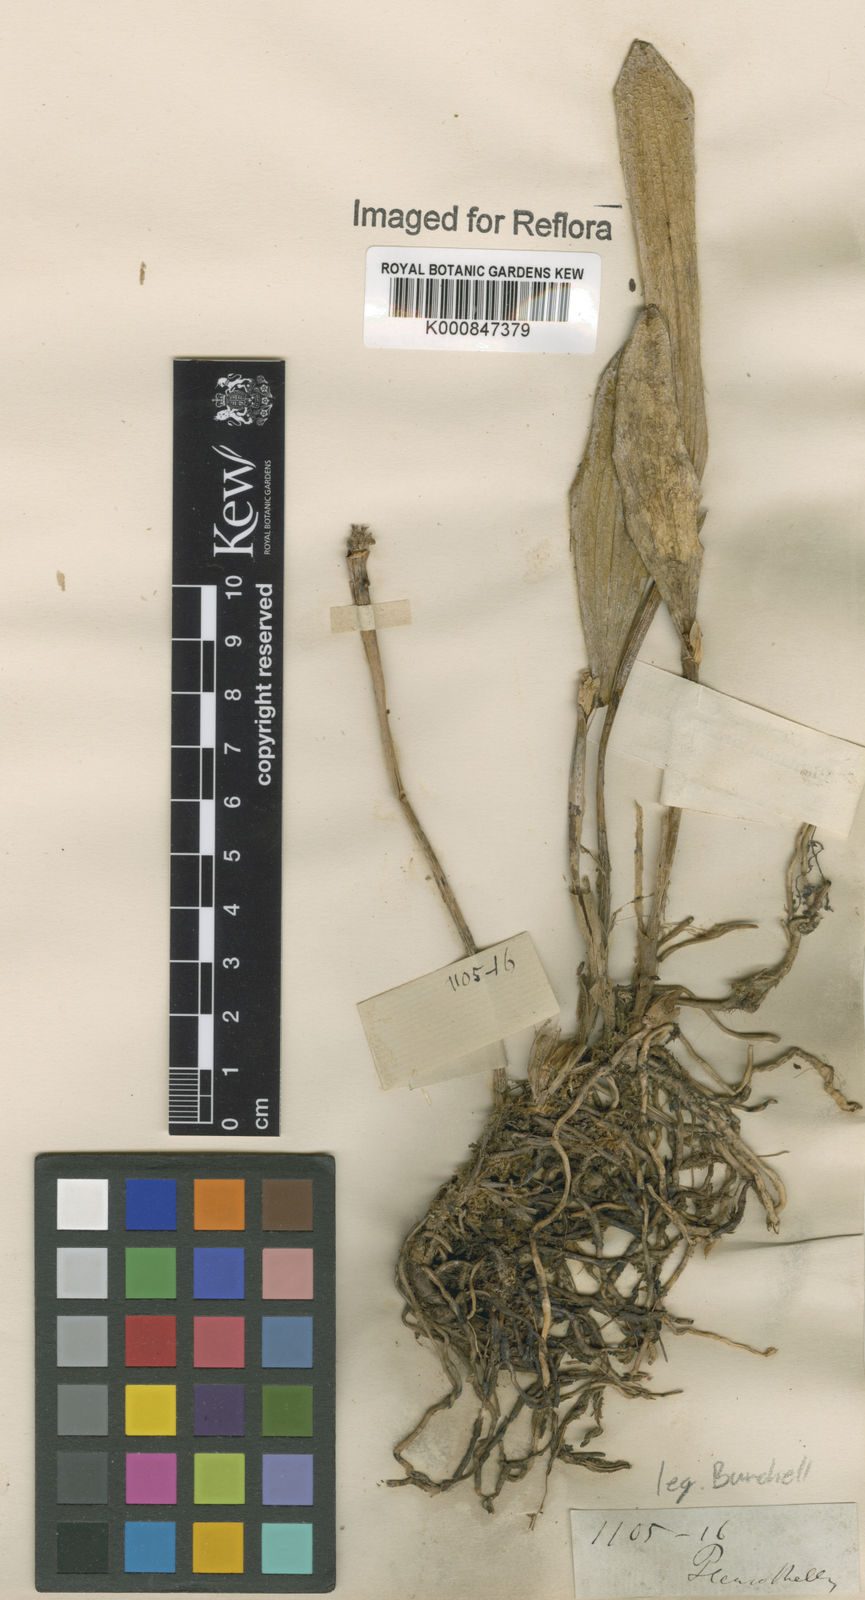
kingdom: Plantae
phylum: Tracheophyta
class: Liliopsida
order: Asparagales
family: Orchidaceae
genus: Pleurothallis
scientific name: Pleurothallis
